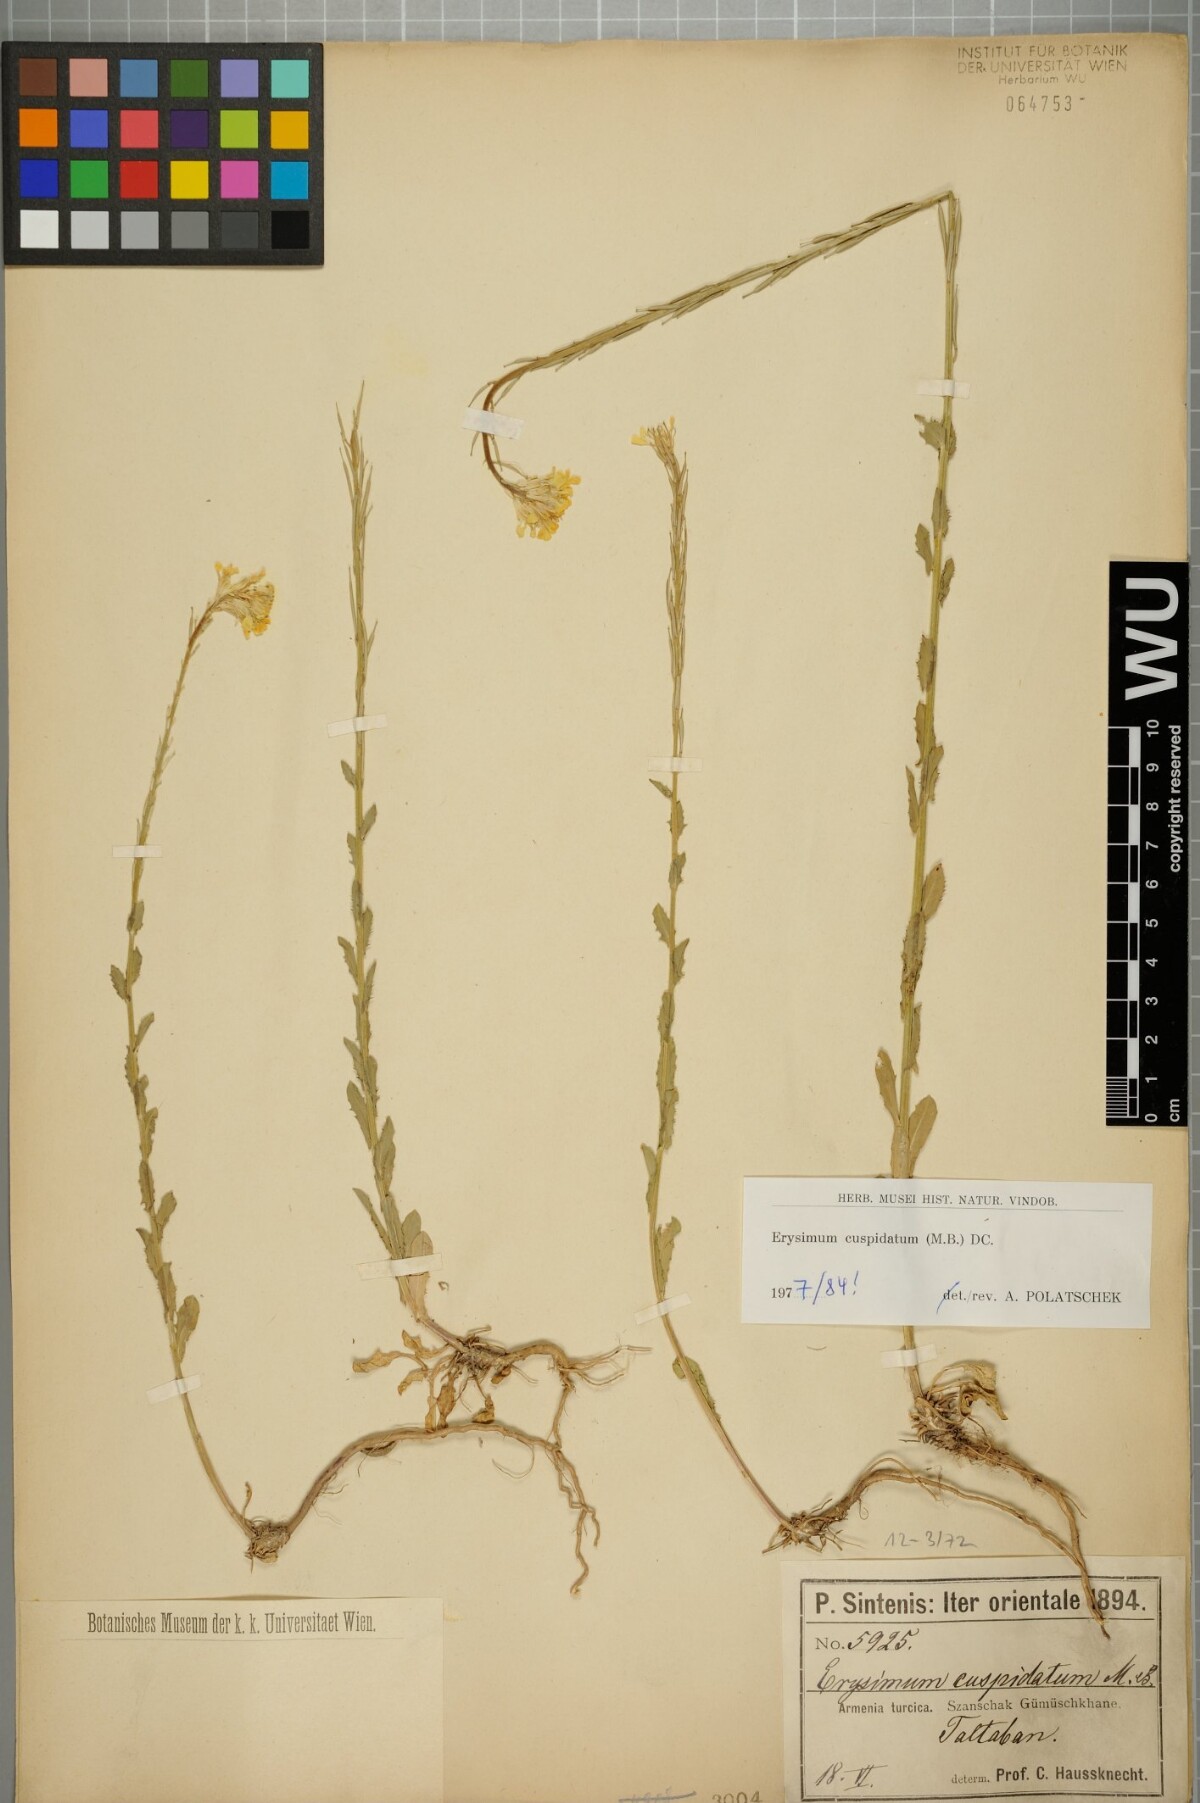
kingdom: Plantae
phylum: Tracheophyta
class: Magnoliopsida
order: Brassicales
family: Brassicaceae
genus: Erysimum
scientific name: Erysimum cuspidatum
